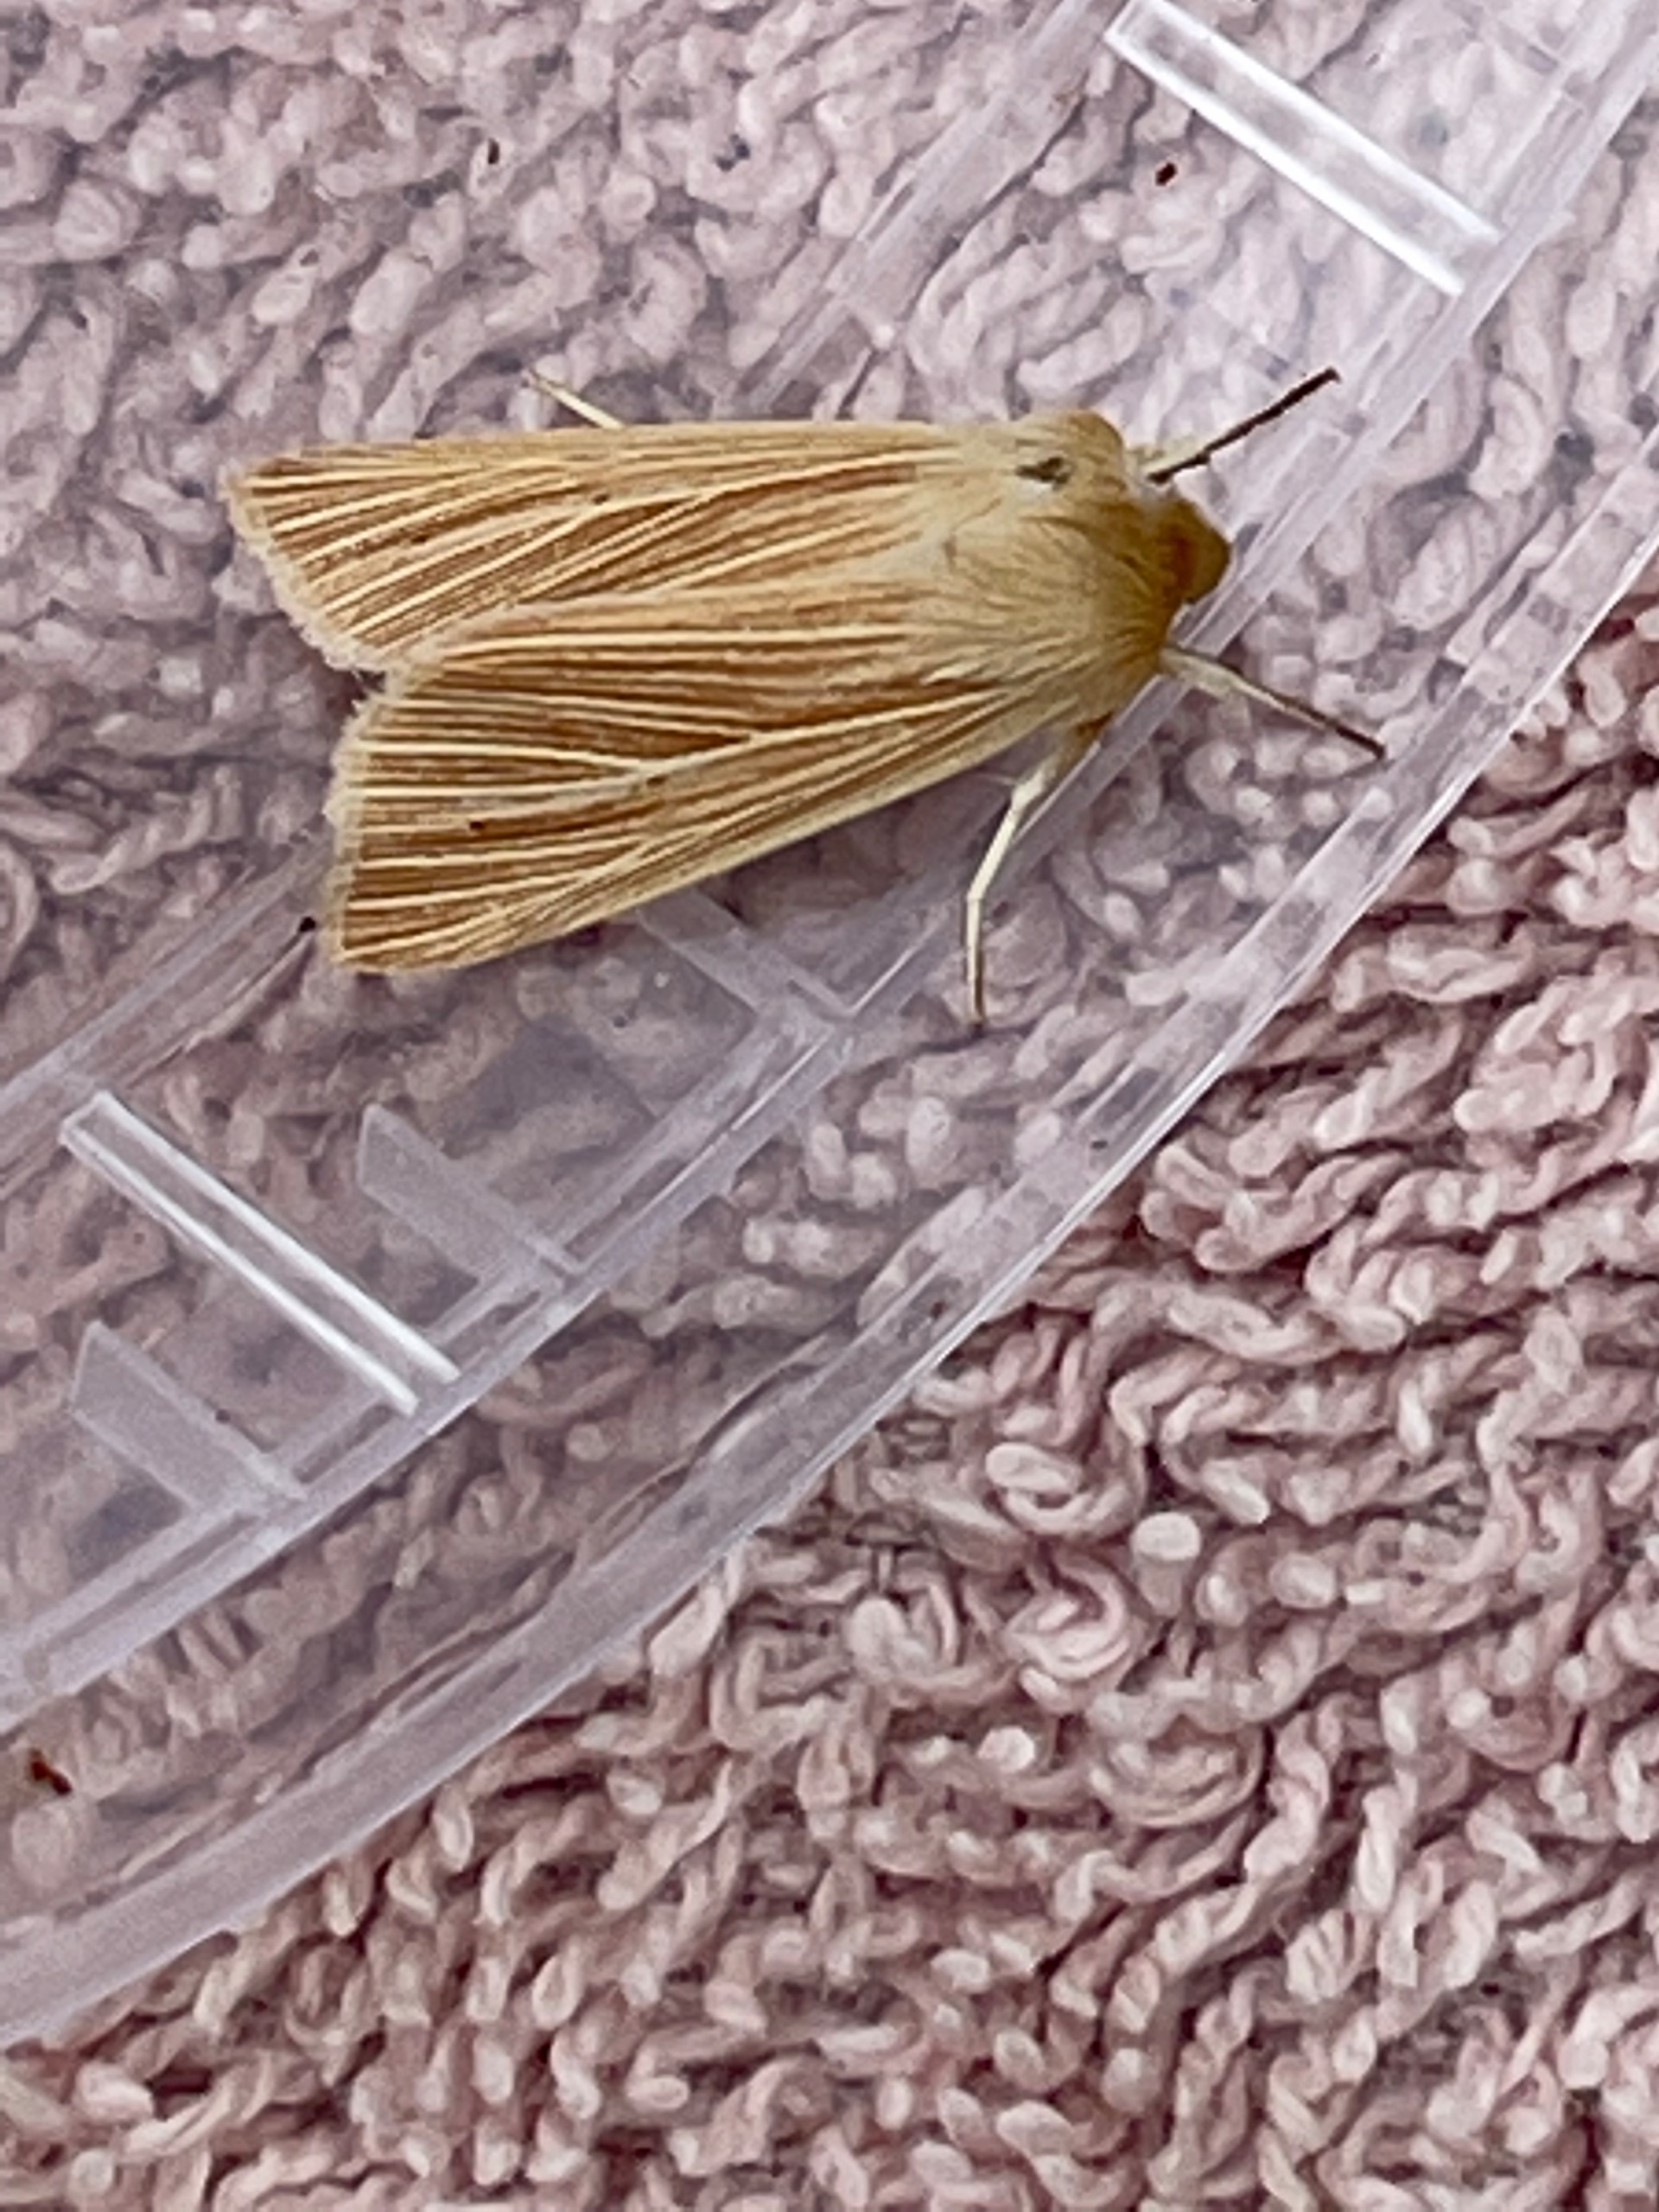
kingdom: Animalia
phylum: Arthropoda
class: Insecta
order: Lepidoptera
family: Noctuidae
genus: Mythimna
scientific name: Mythimna pallens
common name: Halmugle
